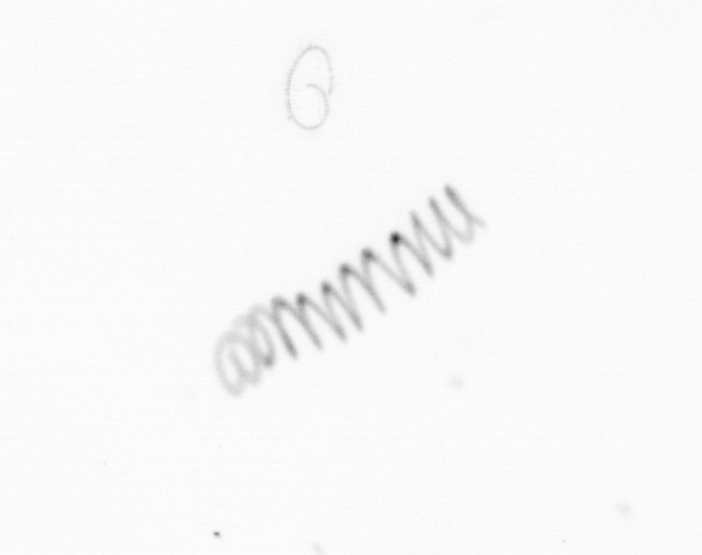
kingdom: Chromista
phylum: Ochrophyta
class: Bacillariophyceae
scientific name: Bacillariophyceae
